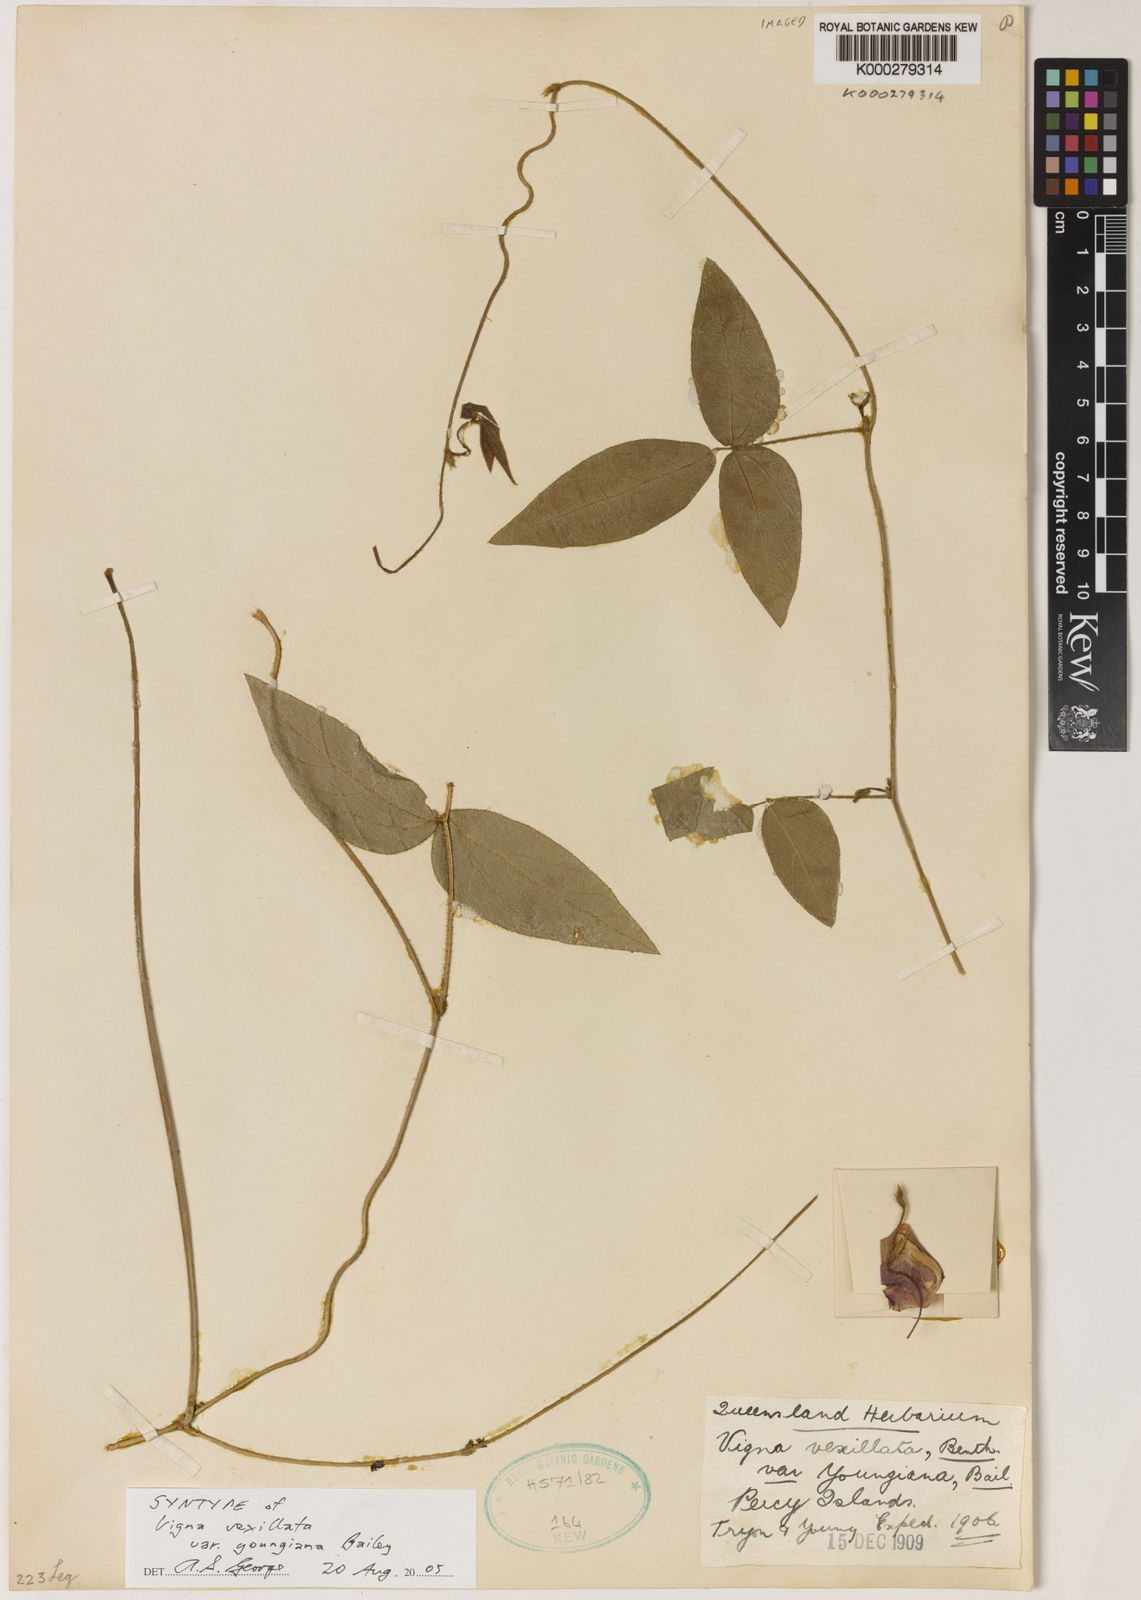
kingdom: Plantae
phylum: Tracheophyta
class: Magnoliopsida
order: Fabales
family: Fabaceae
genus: Vigna
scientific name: Vigna vexillata
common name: Zombi pea
